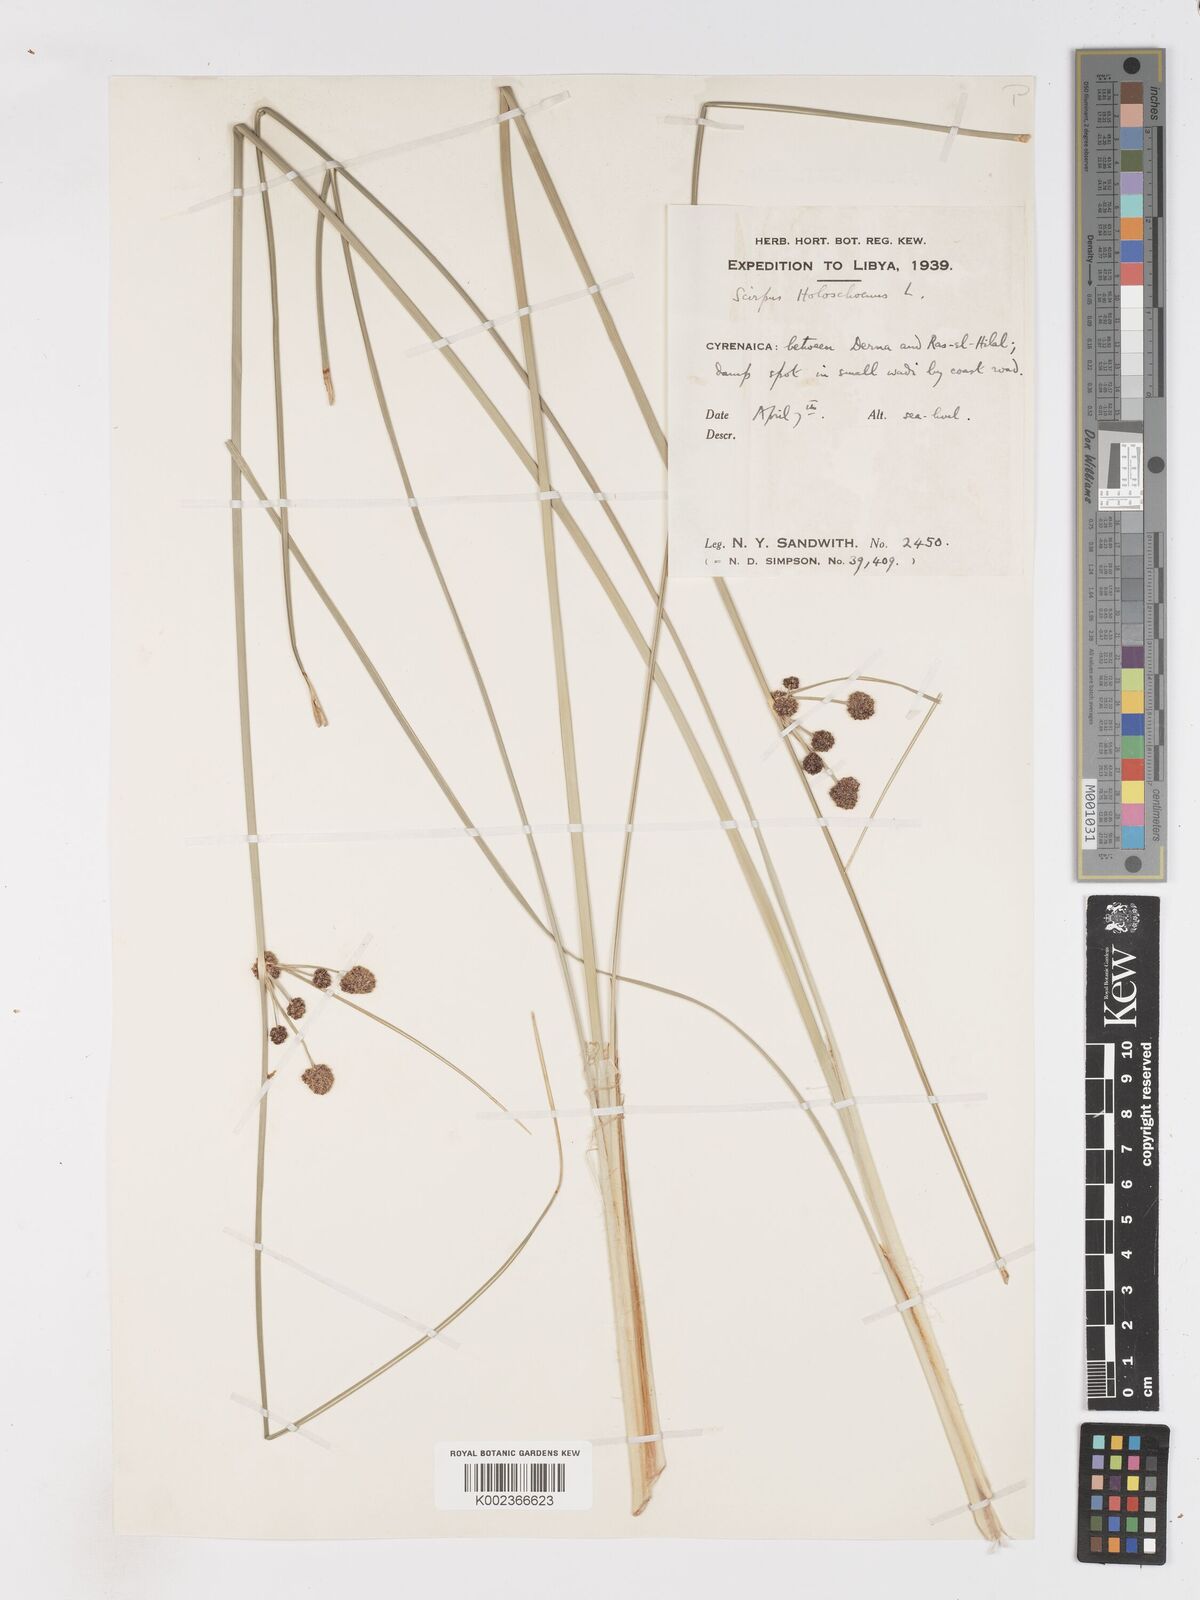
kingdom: Plantae
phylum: Tracheophyta
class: Liliopsida
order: Poales
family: Cyperaceae
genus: Scirpoides
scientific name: Scirpoides holoschoenus
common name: Round-headed club-rush
